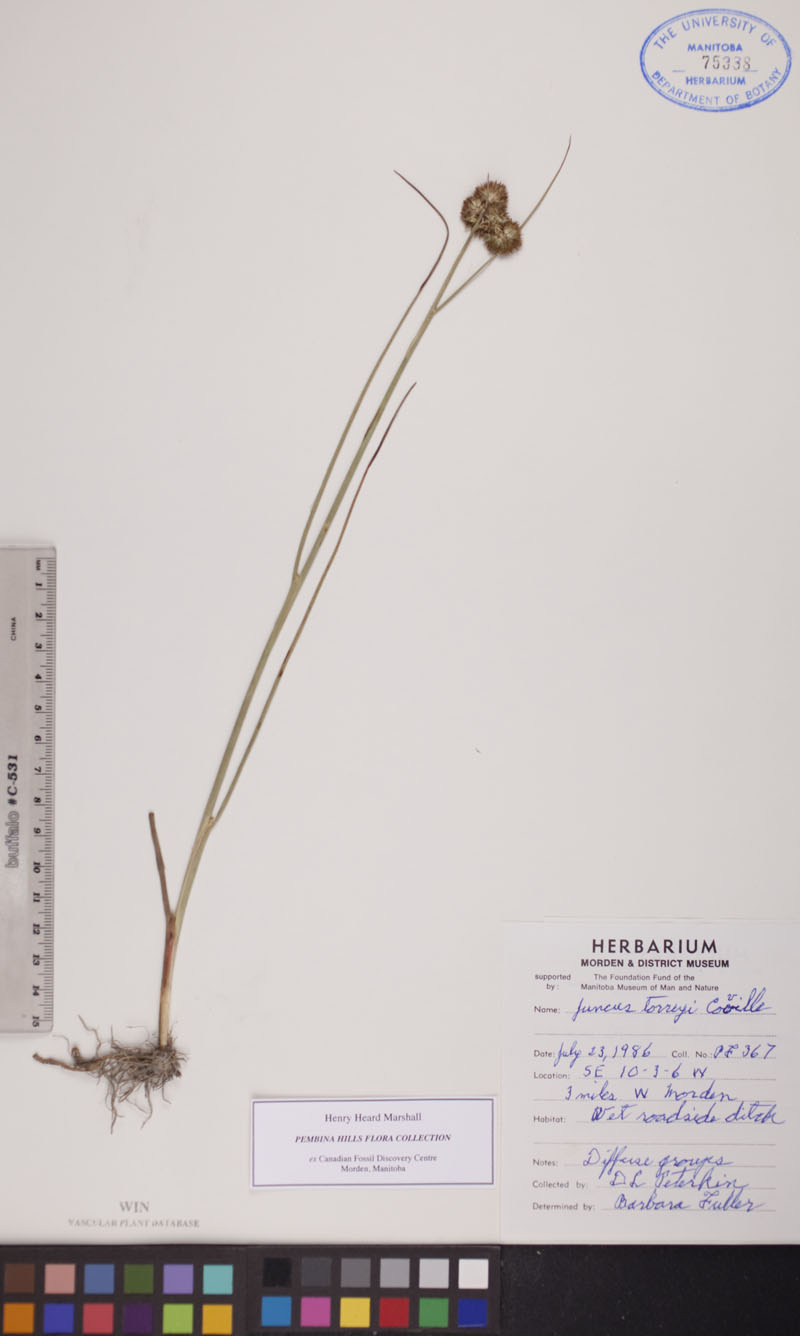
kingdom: Plantae
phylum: Tracheophyta
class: Liliopsida
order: Poales
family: Juncaceae
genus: Juncus
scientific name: Juncus torreyi
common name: Torrey's rush
